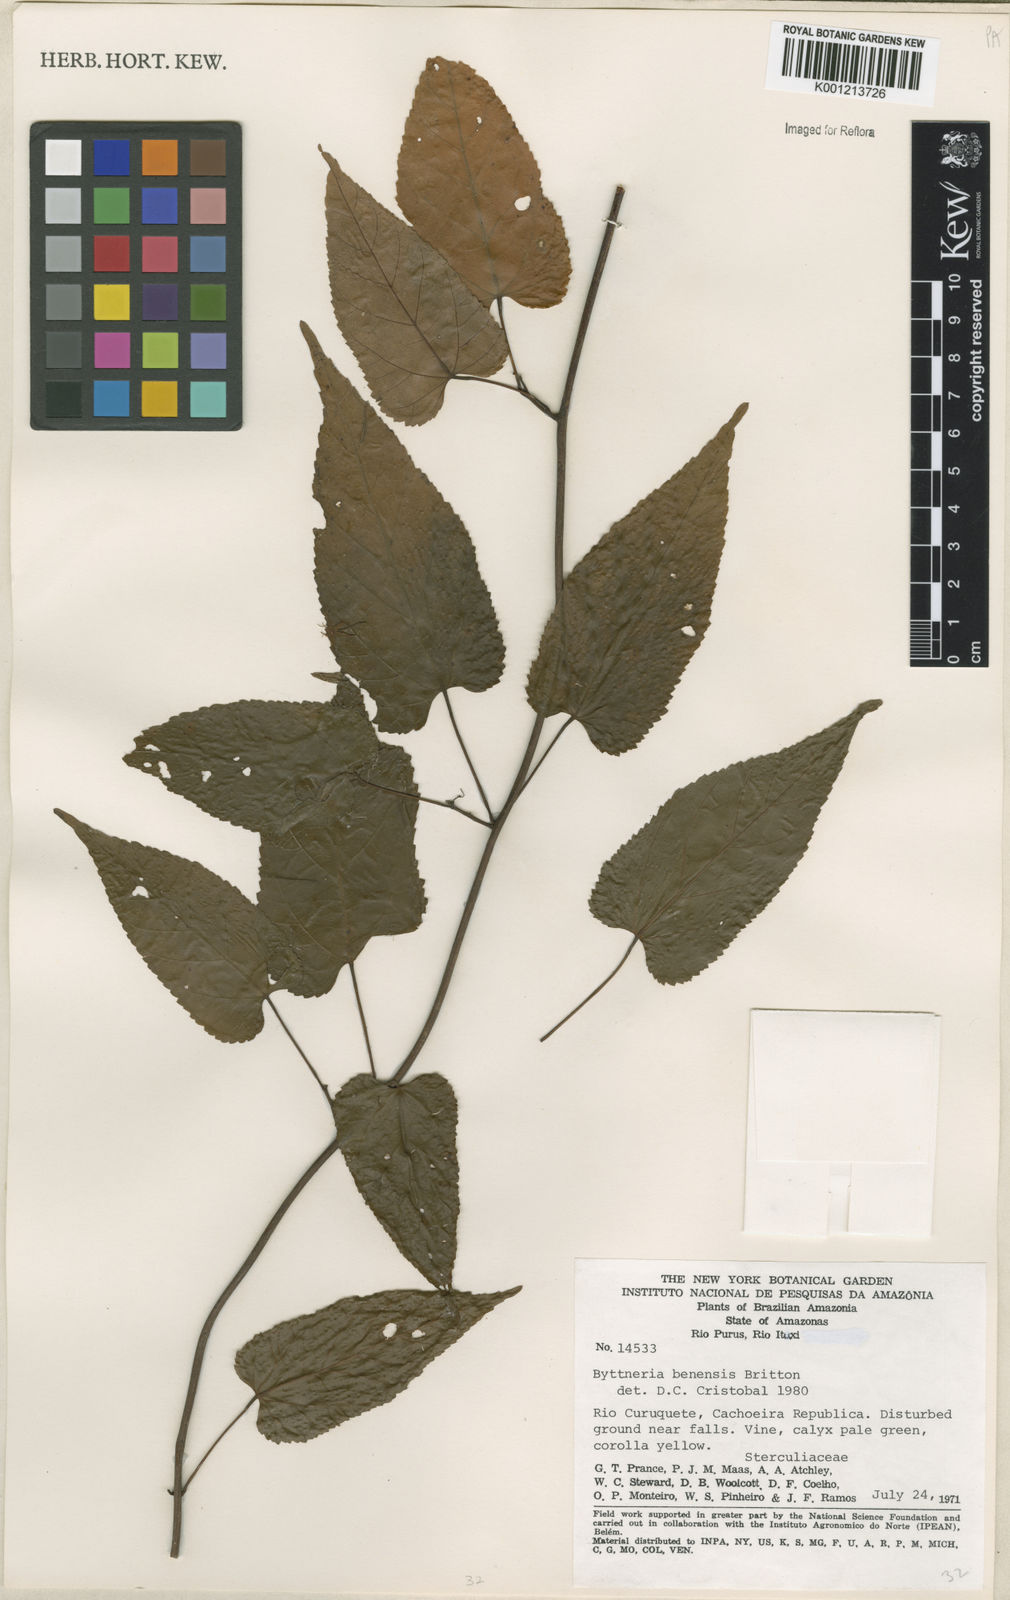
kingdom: Plantae
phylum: Tracheophyta
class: Magnoliopsida
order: Malvales
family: Malvaceae
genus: Byttneria
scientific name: Byttneria benensis
